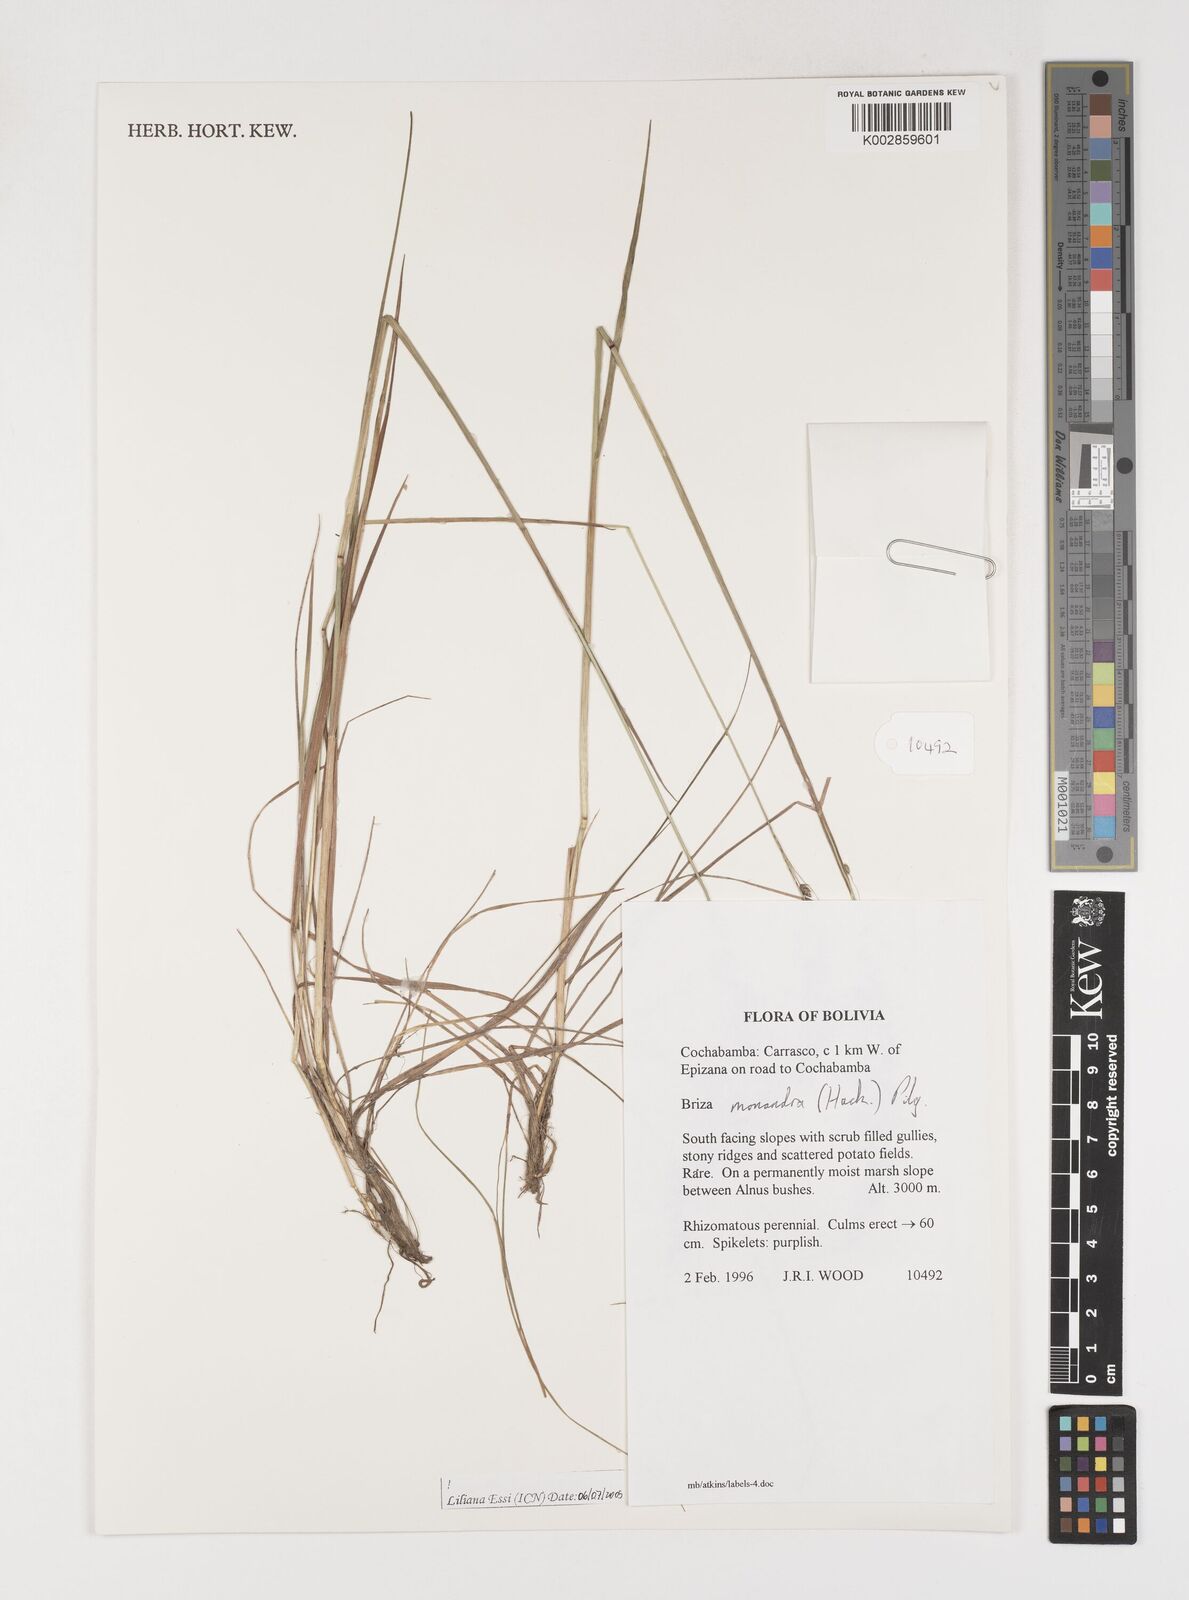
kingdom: Plantae
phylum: Tracheophyta
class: Liliopsida
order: Poales
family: Poaceae
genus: Poidium
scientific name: Poidium monandrum
